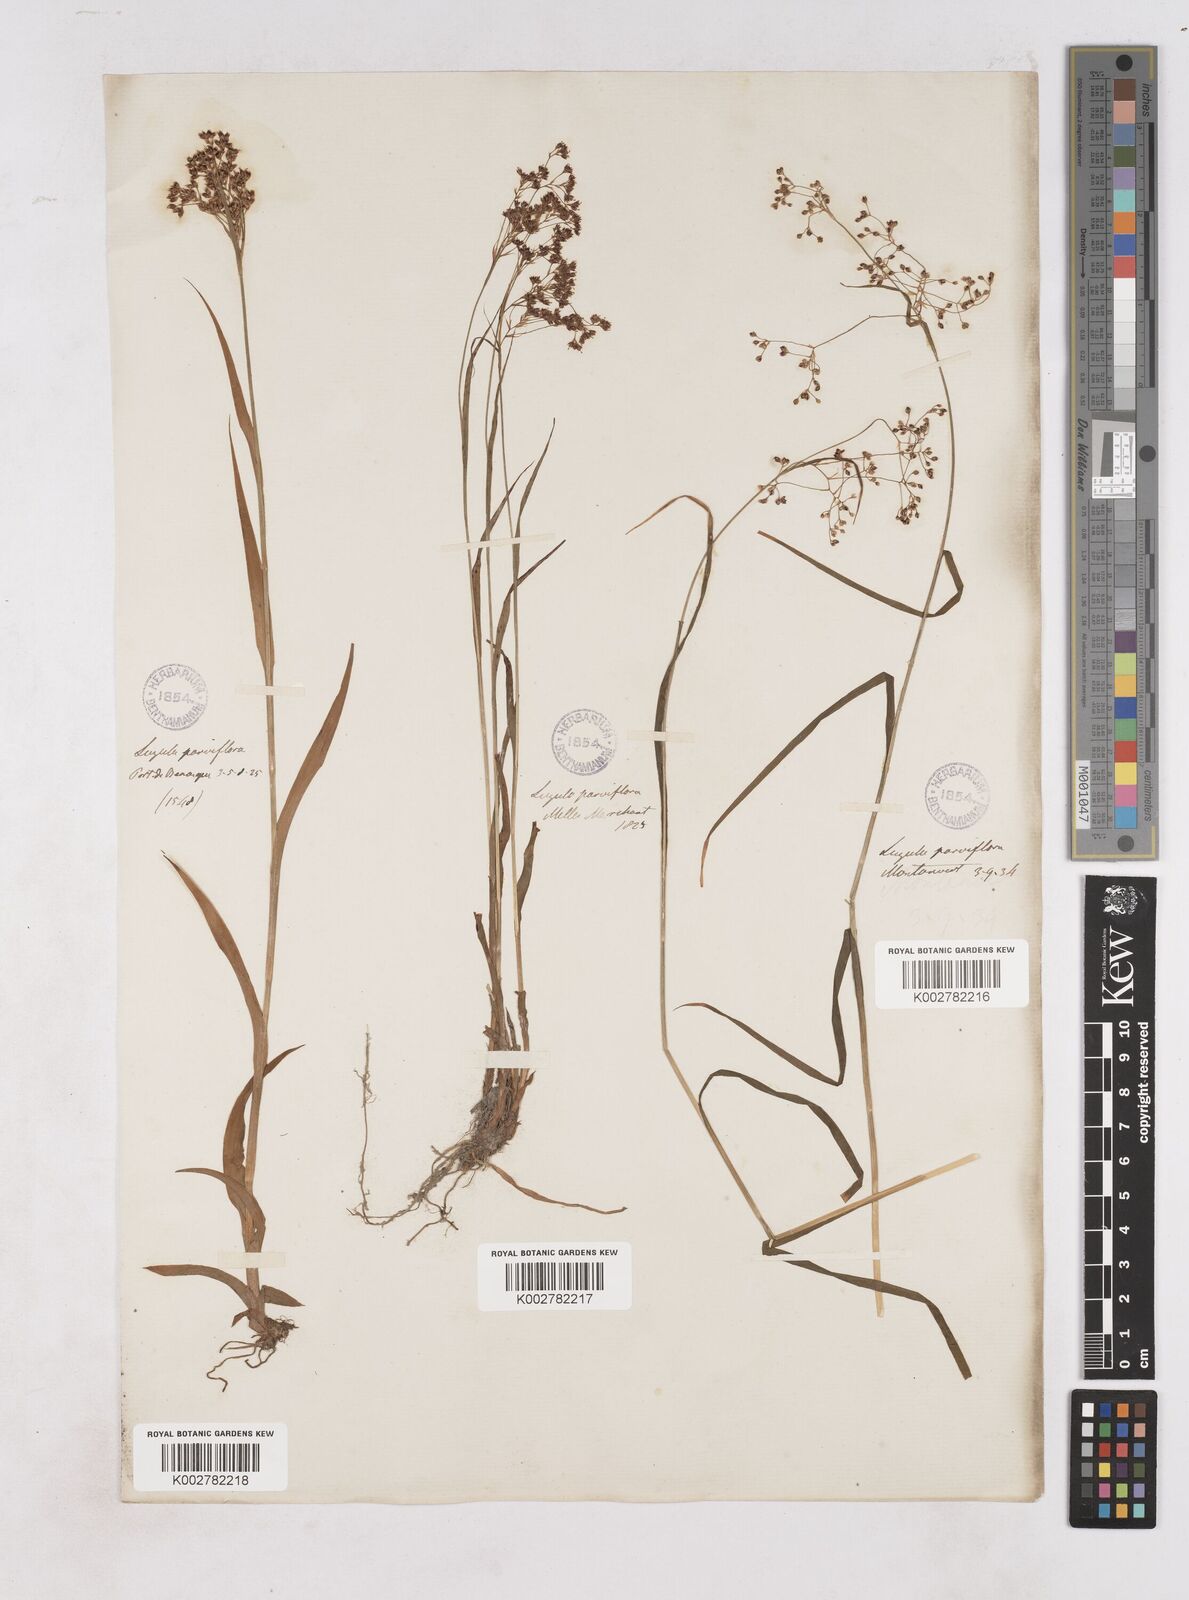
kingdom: Plantae
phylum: Tracheophyta
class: Liliopsida
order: Poales
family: Juncaceae
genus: Luzula
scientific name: Luzula parviflora
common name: Millet woodrush
